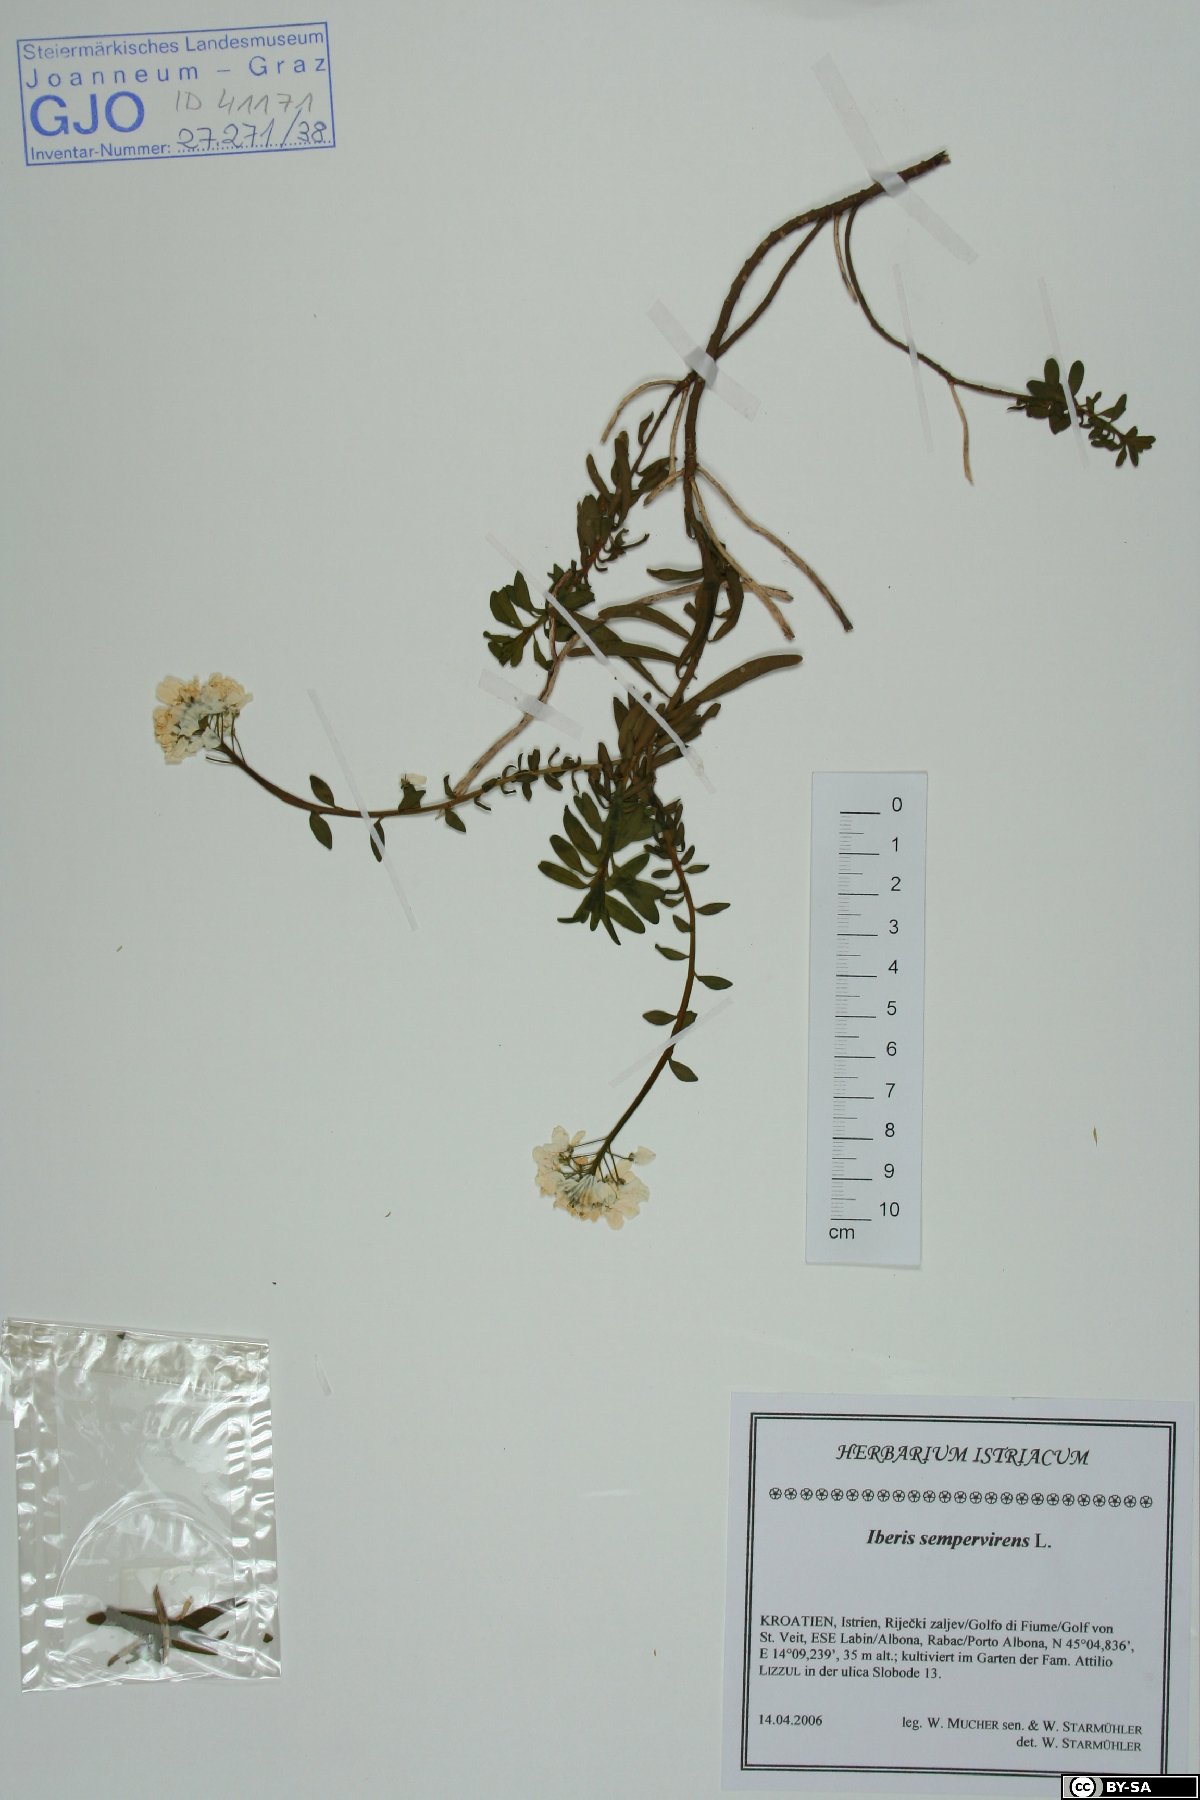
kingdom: Plantae
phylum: Tracheophyta
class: Magnoliopsida
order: Brassicales
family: Brassicaceae
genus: Iberis
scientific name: Iberis sempervirens
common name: Evergreen candytuft
